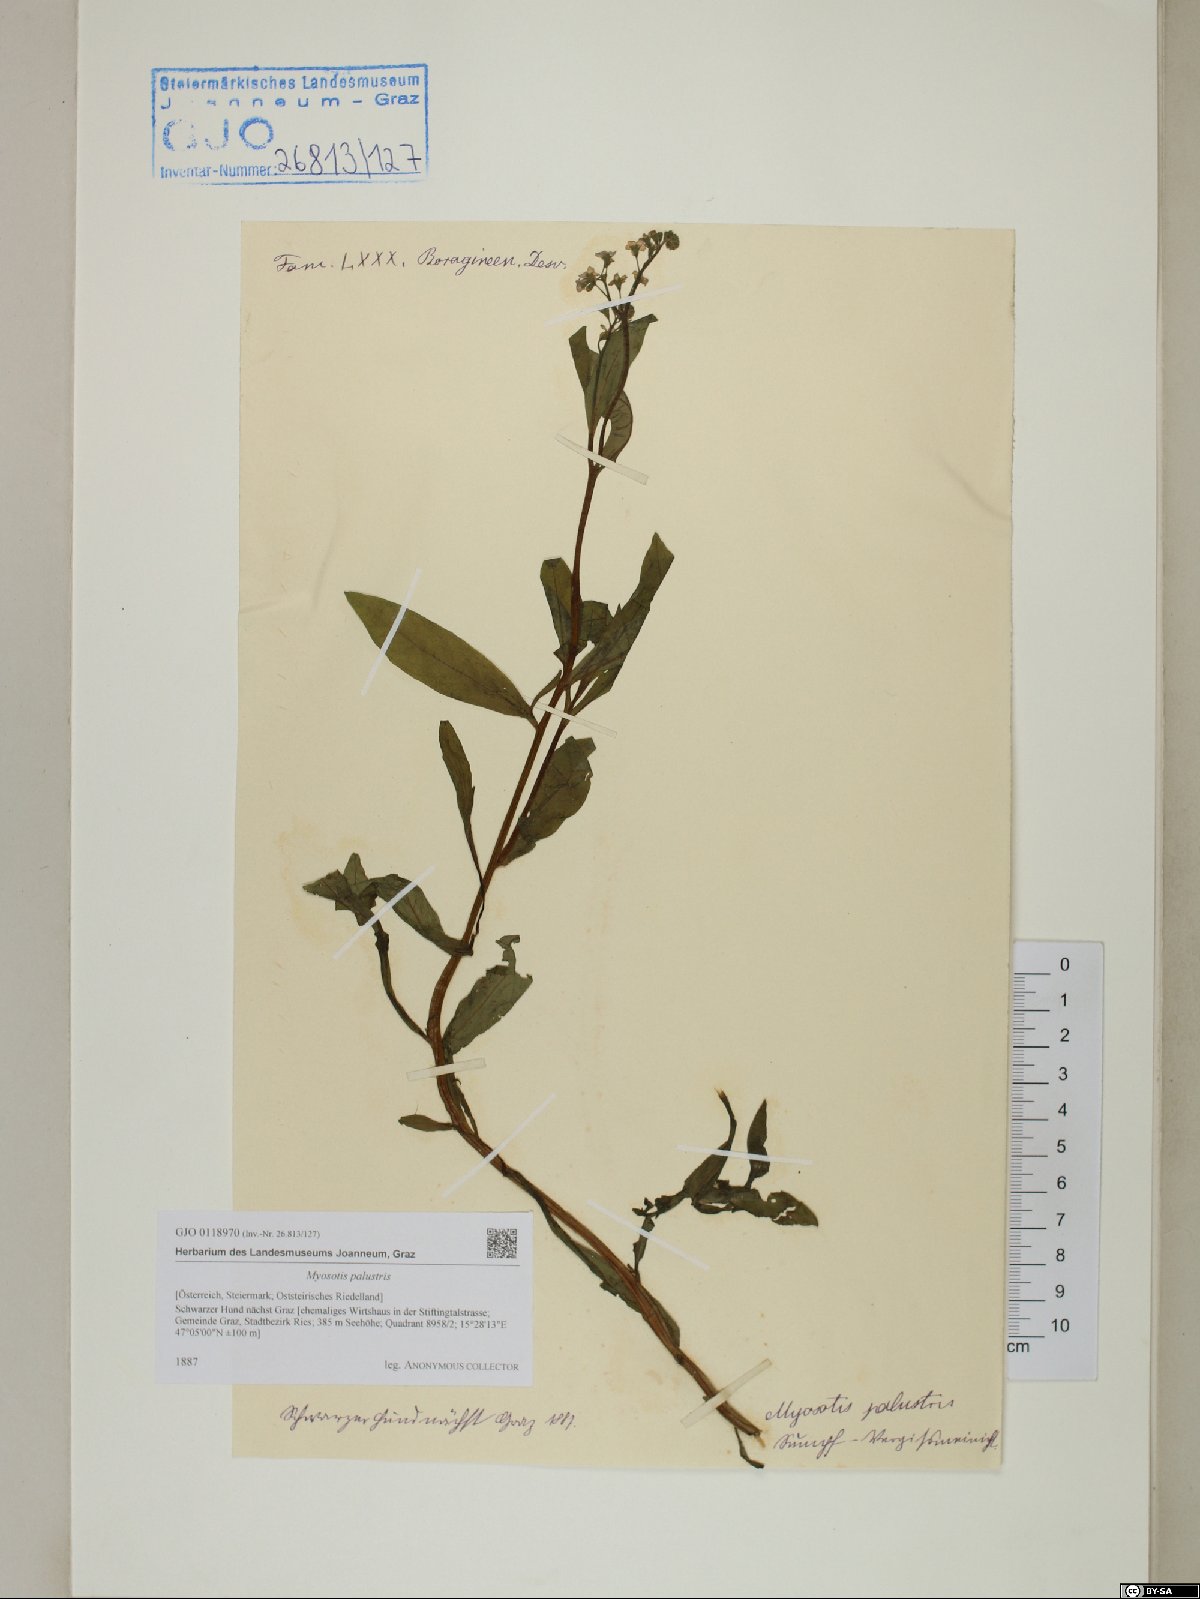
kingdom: Plantae
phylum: Tracheophyta
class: Magnoliopsida
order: Boraginales
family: Boraginaceae
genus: Myosotis
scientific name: Myosotis scorpioides
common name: Water forget-me-not
